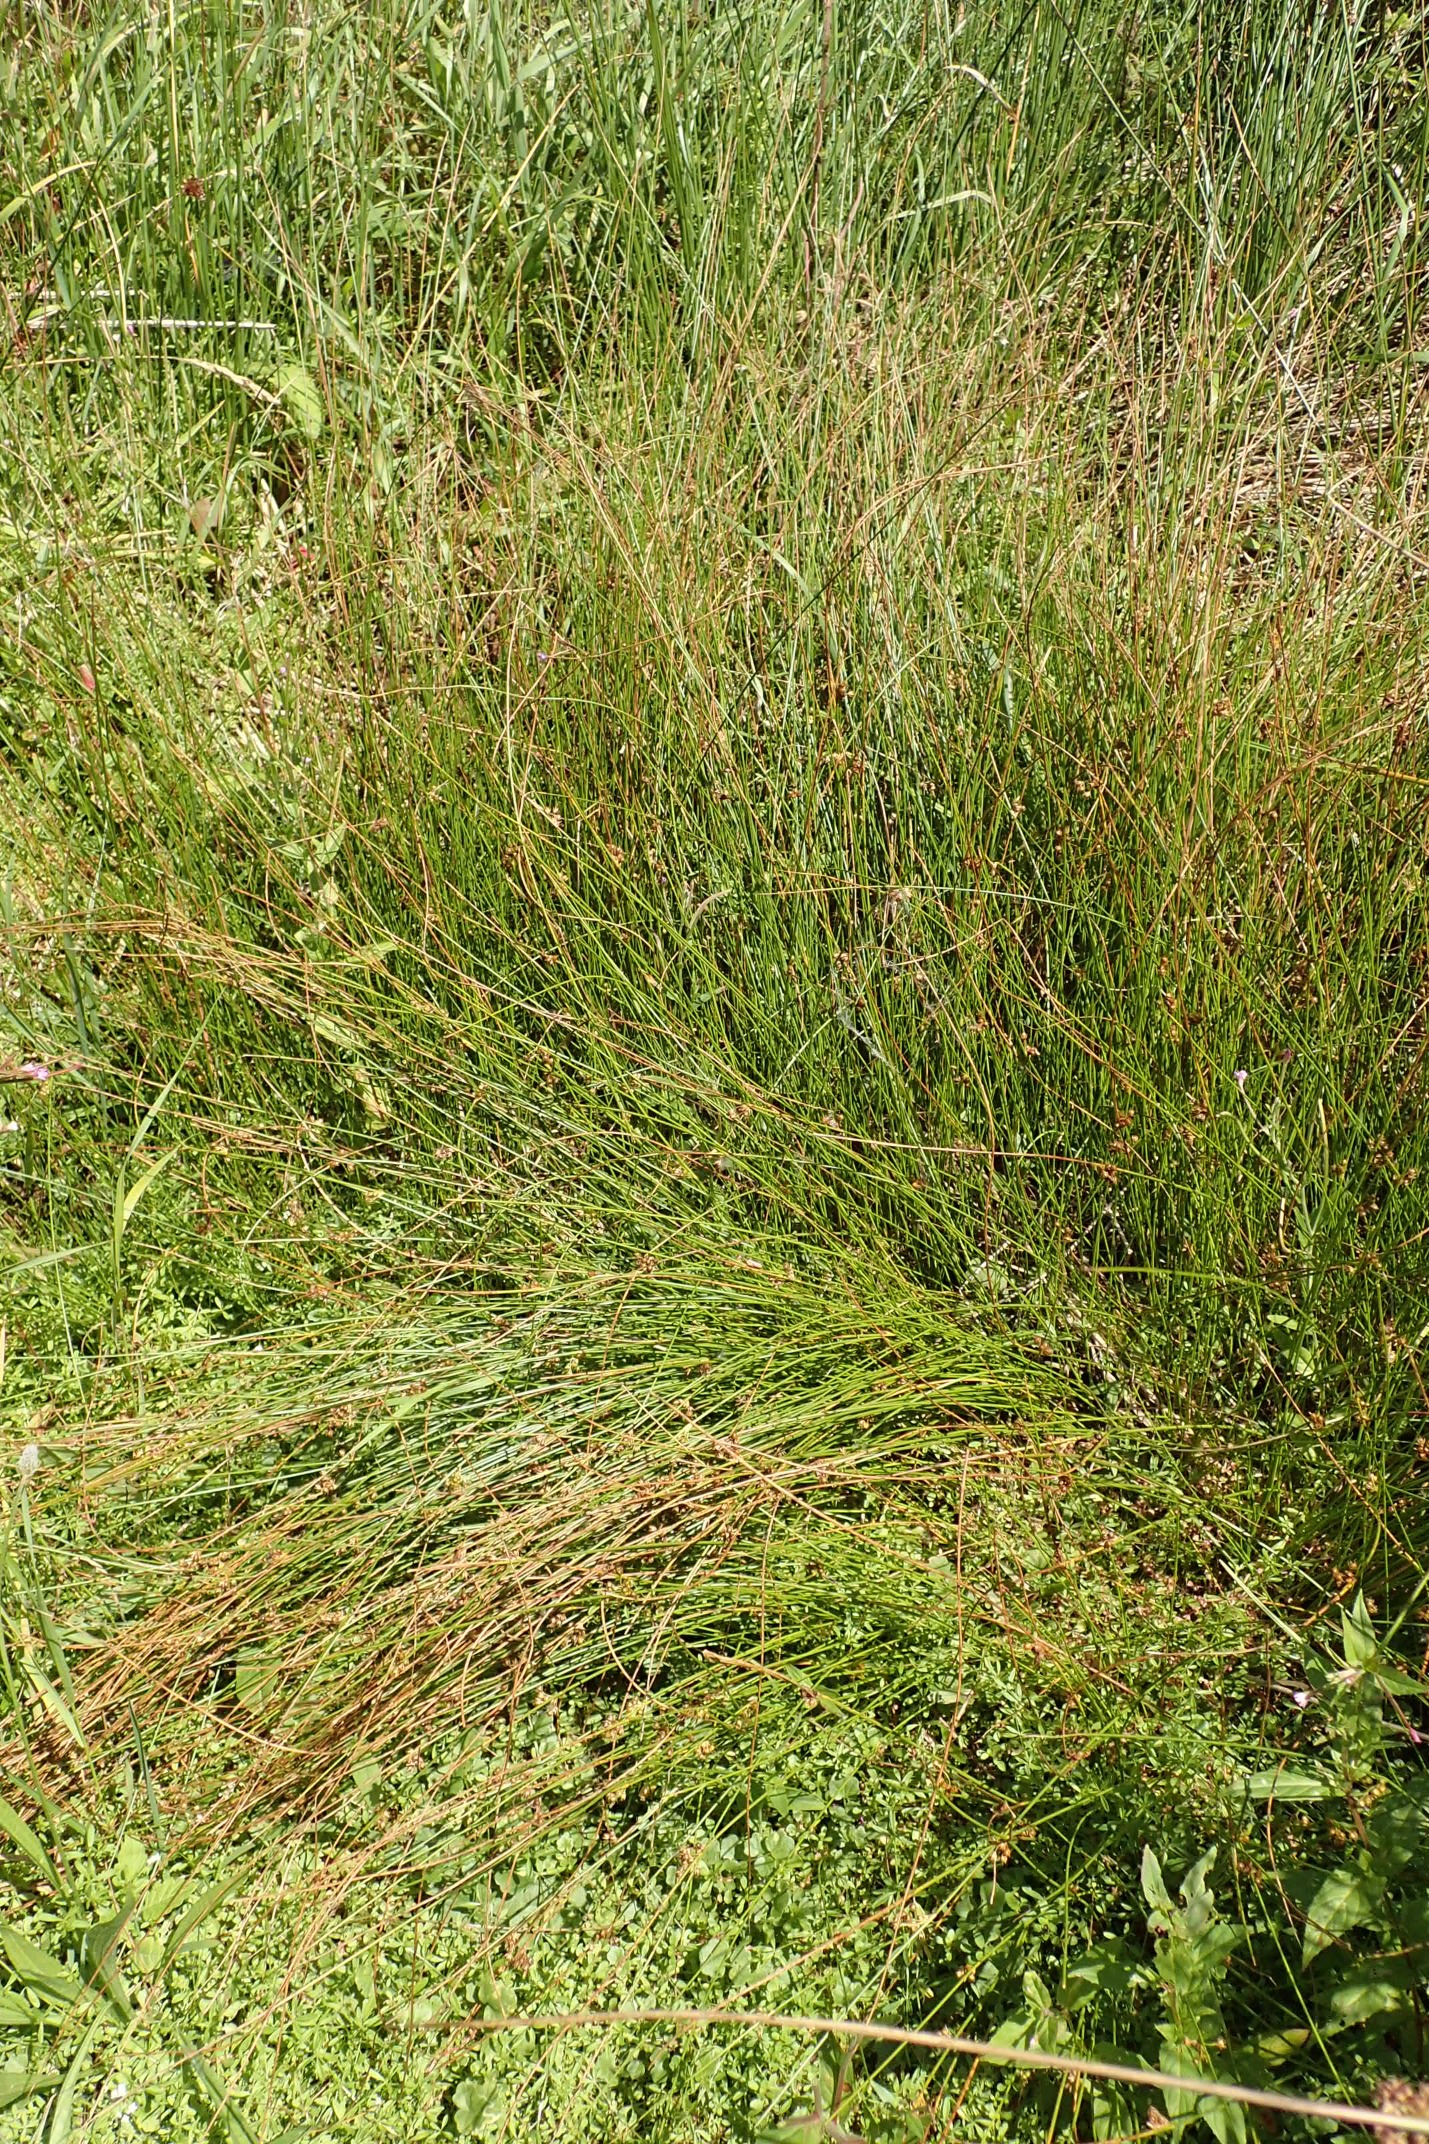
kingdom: Plantae
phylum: Tracheophyta
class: Liliopsida
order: Poales
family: Juncaceae
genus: Juncus
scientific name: Juncus filiformis
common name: Tråd-siv
